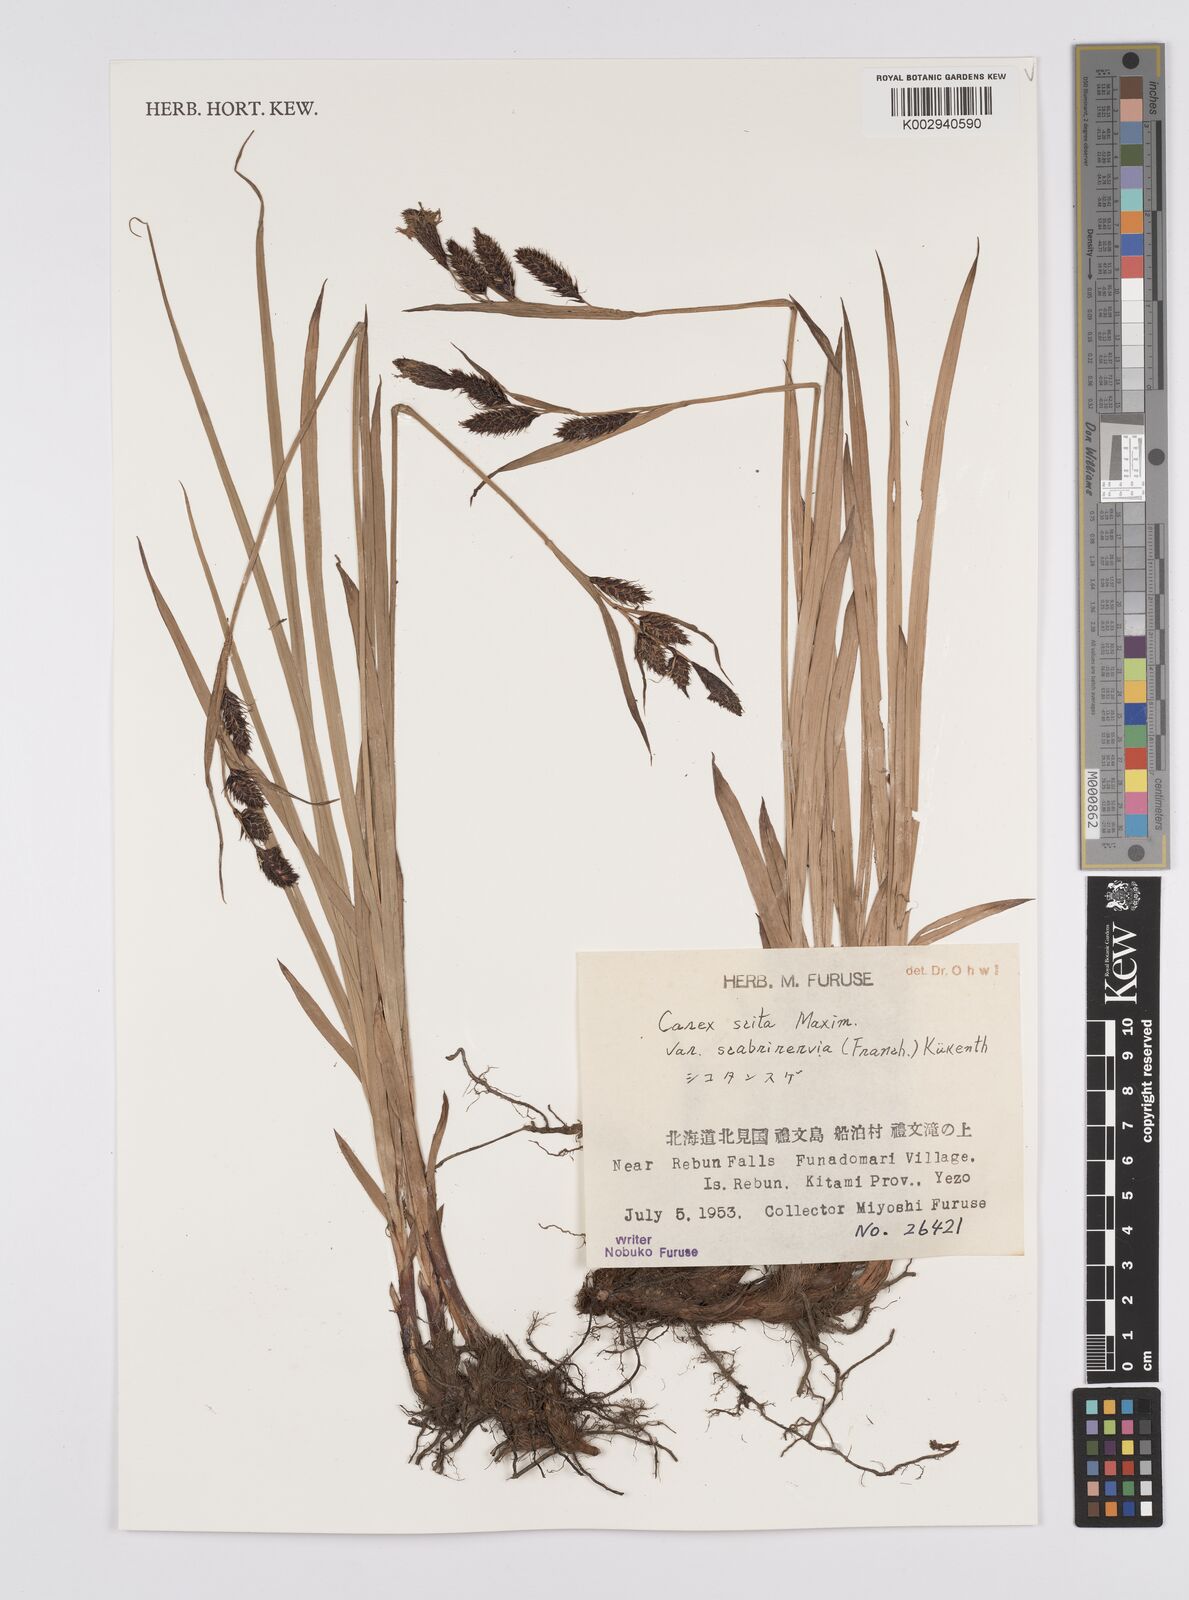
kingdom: Plantae
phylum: Tracheophyta
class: Liliopsida
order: Poales
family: Cyperaceae
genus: Carex
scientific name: Carex scita
